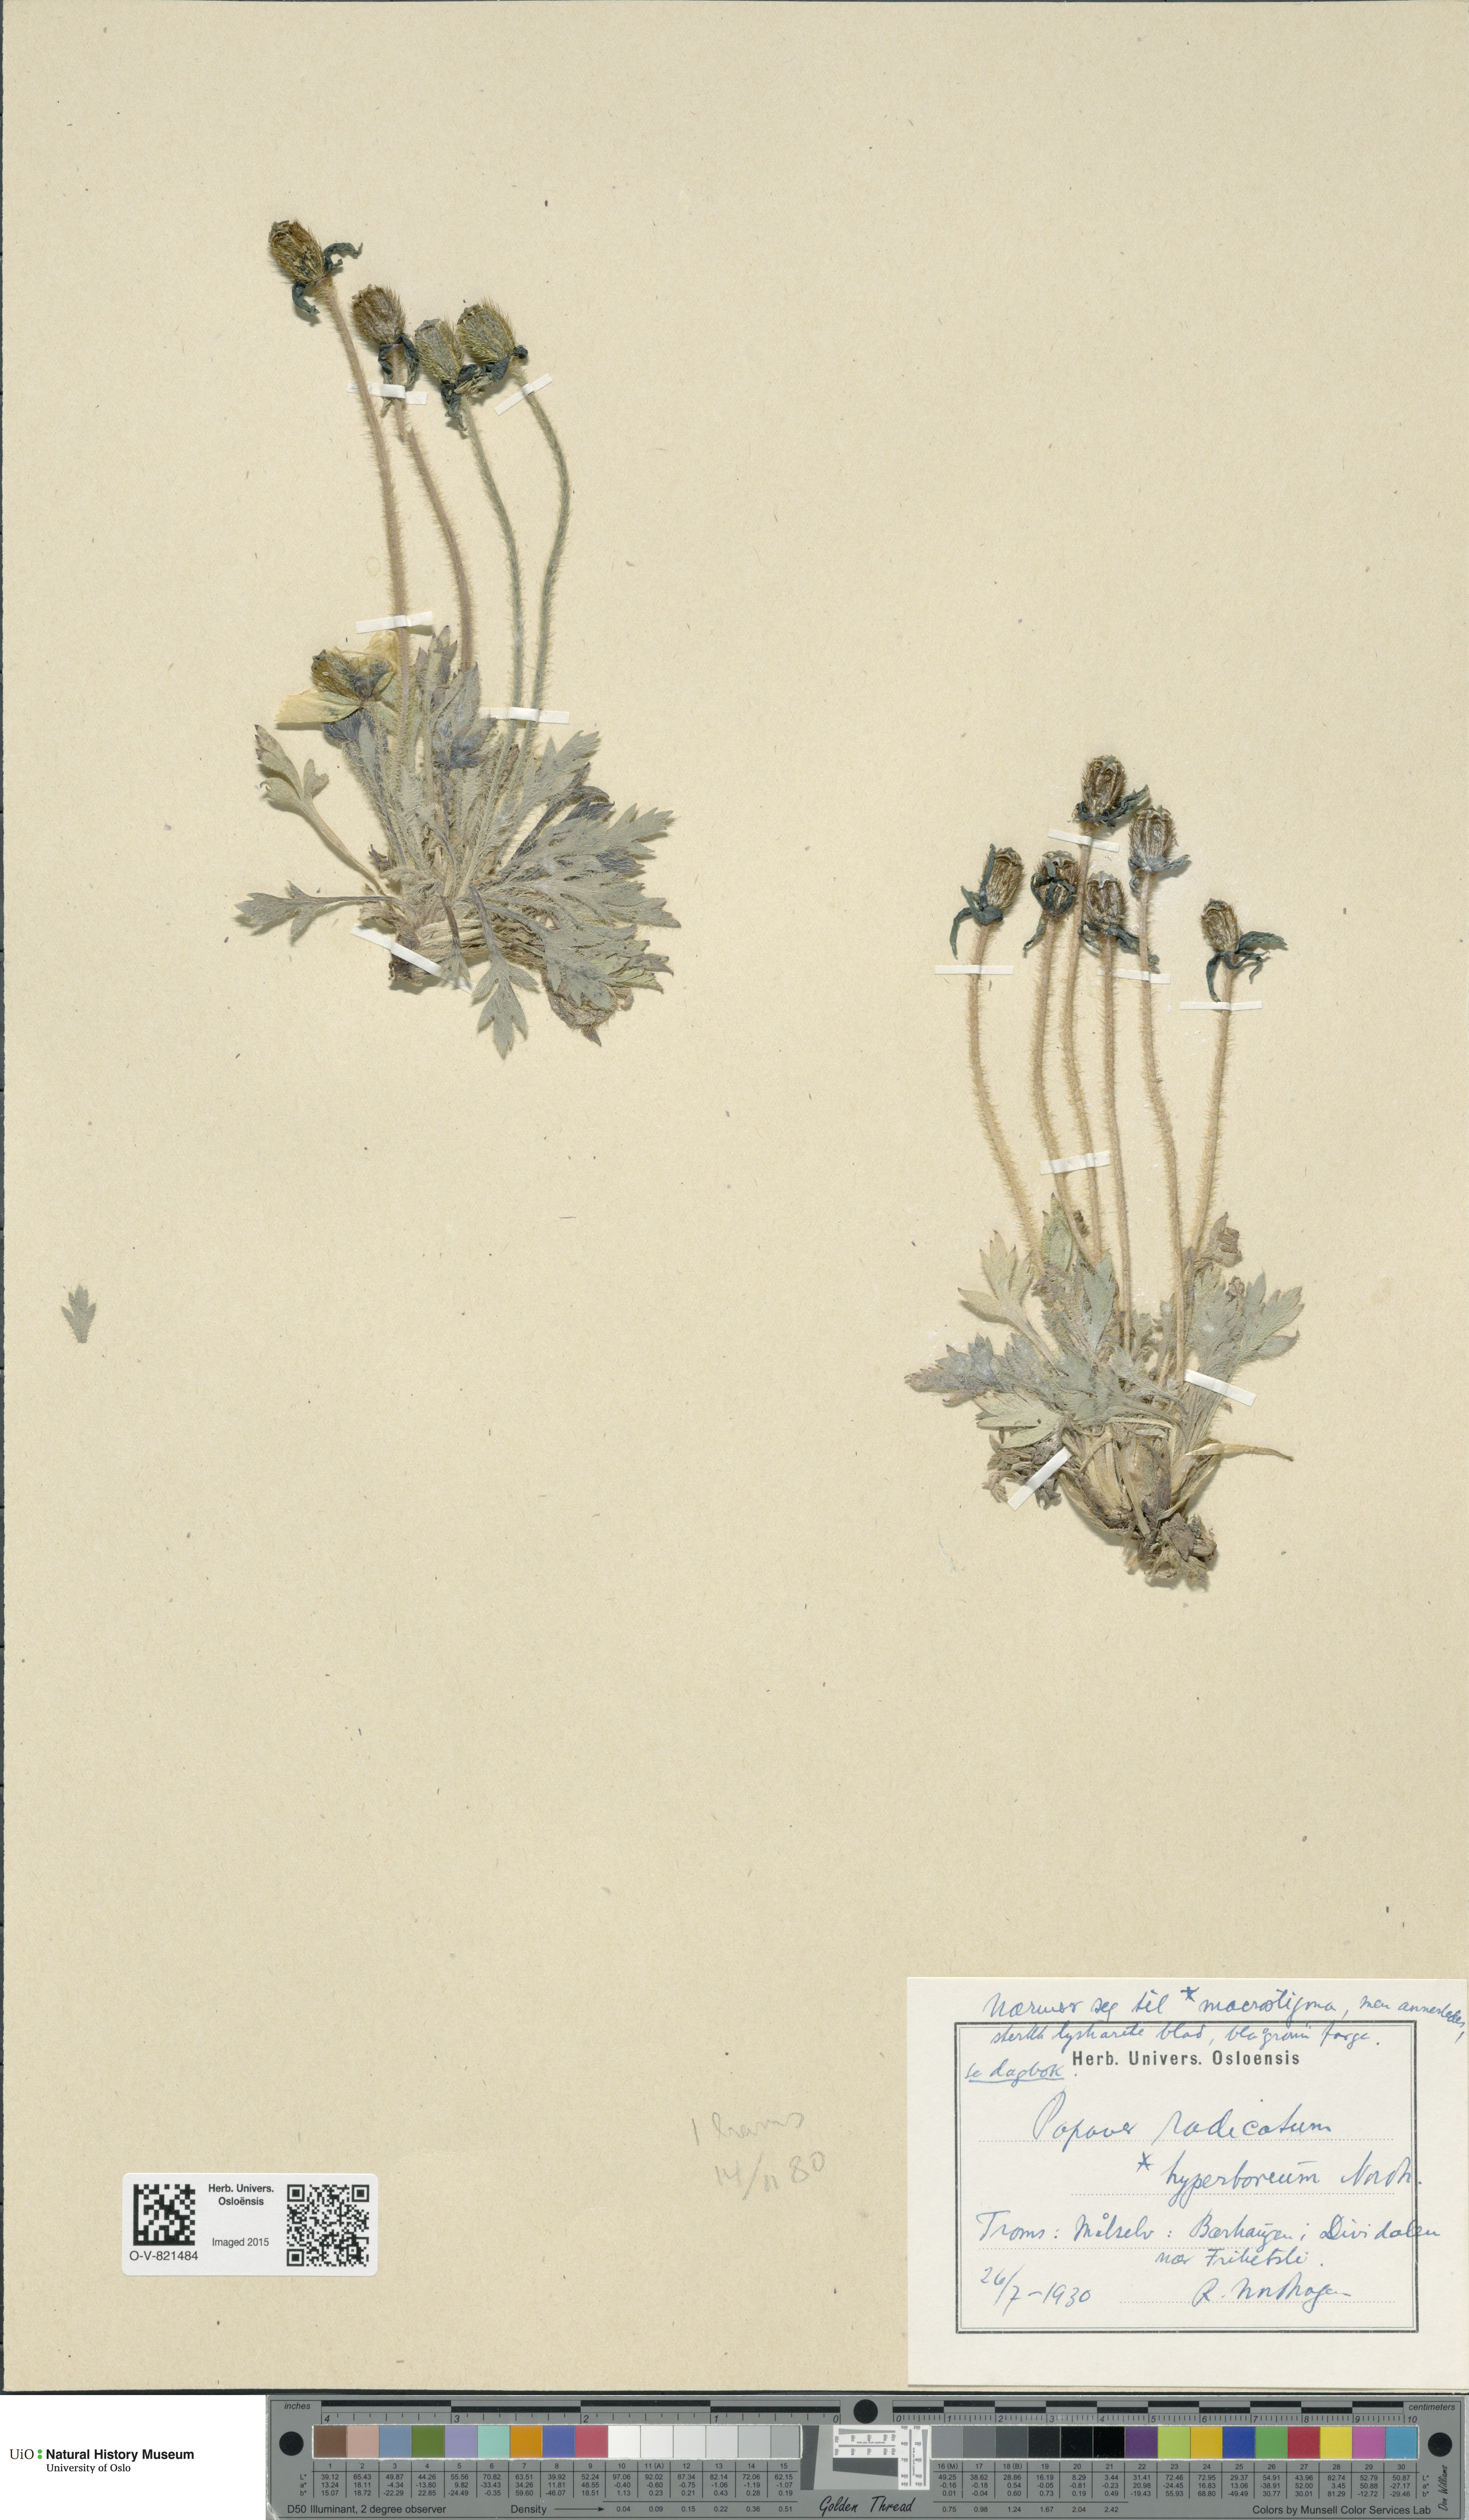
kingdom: Plantae
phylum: Tracheophyta
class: Magnoliopsida
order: Ranunculales
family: Papaveraceae
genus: Papaver
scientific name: Papaver radicatum
